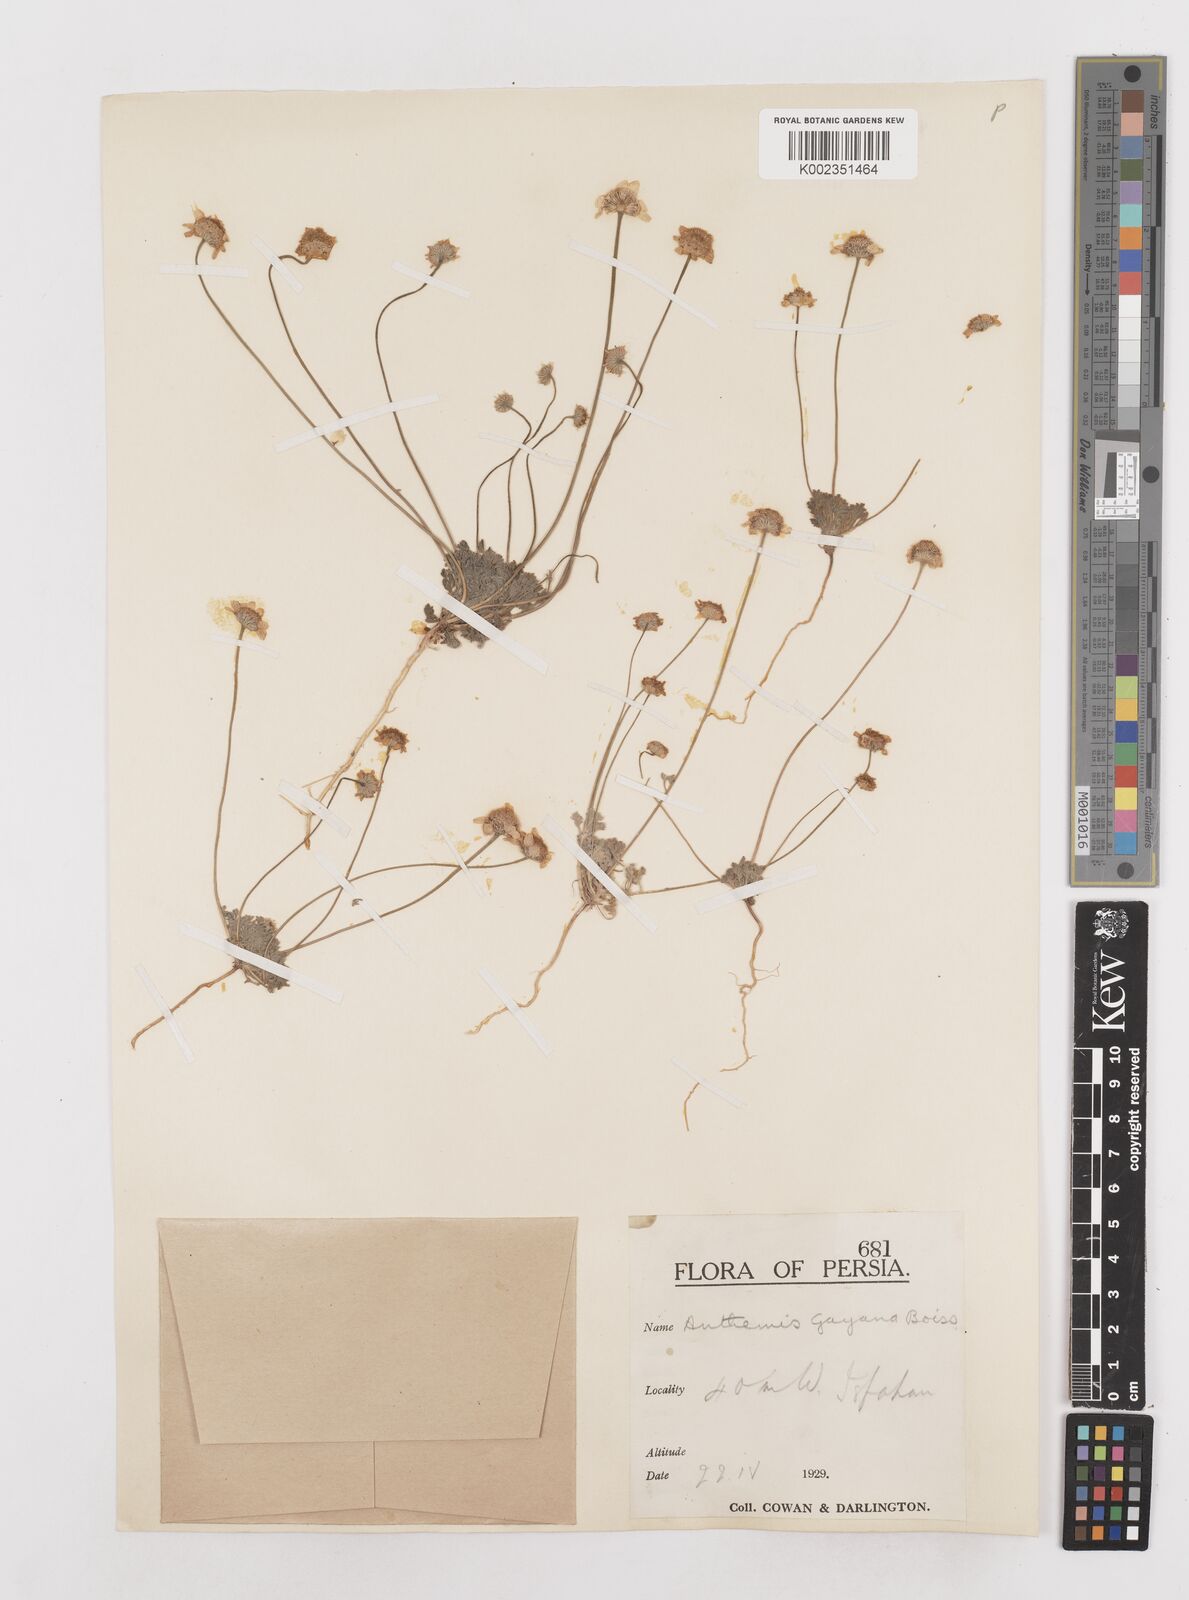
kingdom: Plantae
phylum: Tracheophyta
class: Magnoliopsida
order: Asterales
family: Asteraceae
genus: Anthemis
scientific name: Anthemis gayana
